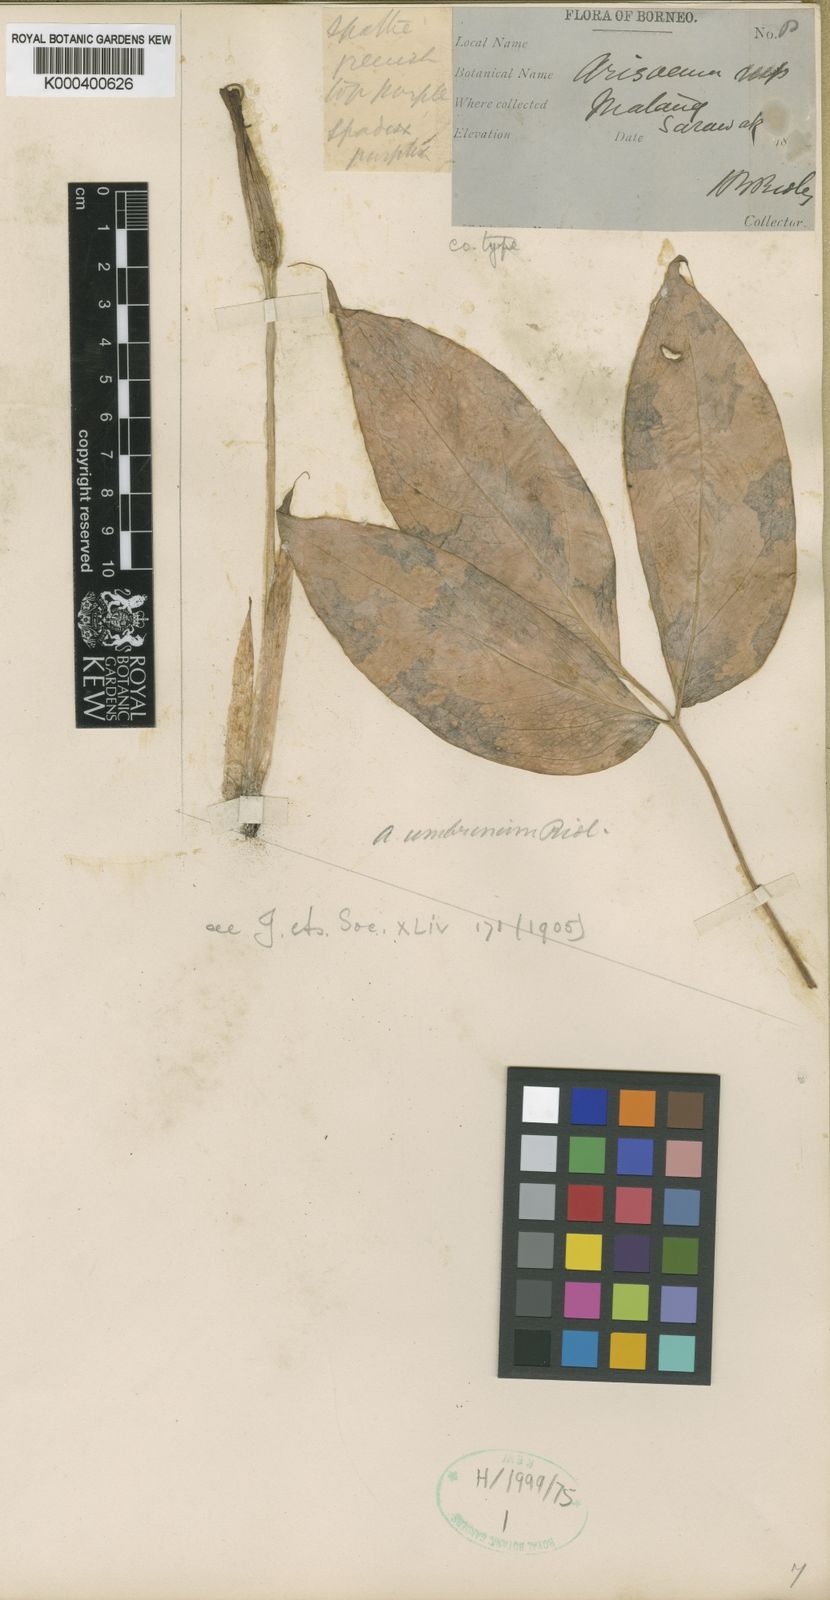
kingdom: Plantae
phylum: Tracheophyta
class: Liliopsida
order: Alismatales
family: Araceae
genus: Arisaema
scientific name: Arisaema umbrinum
